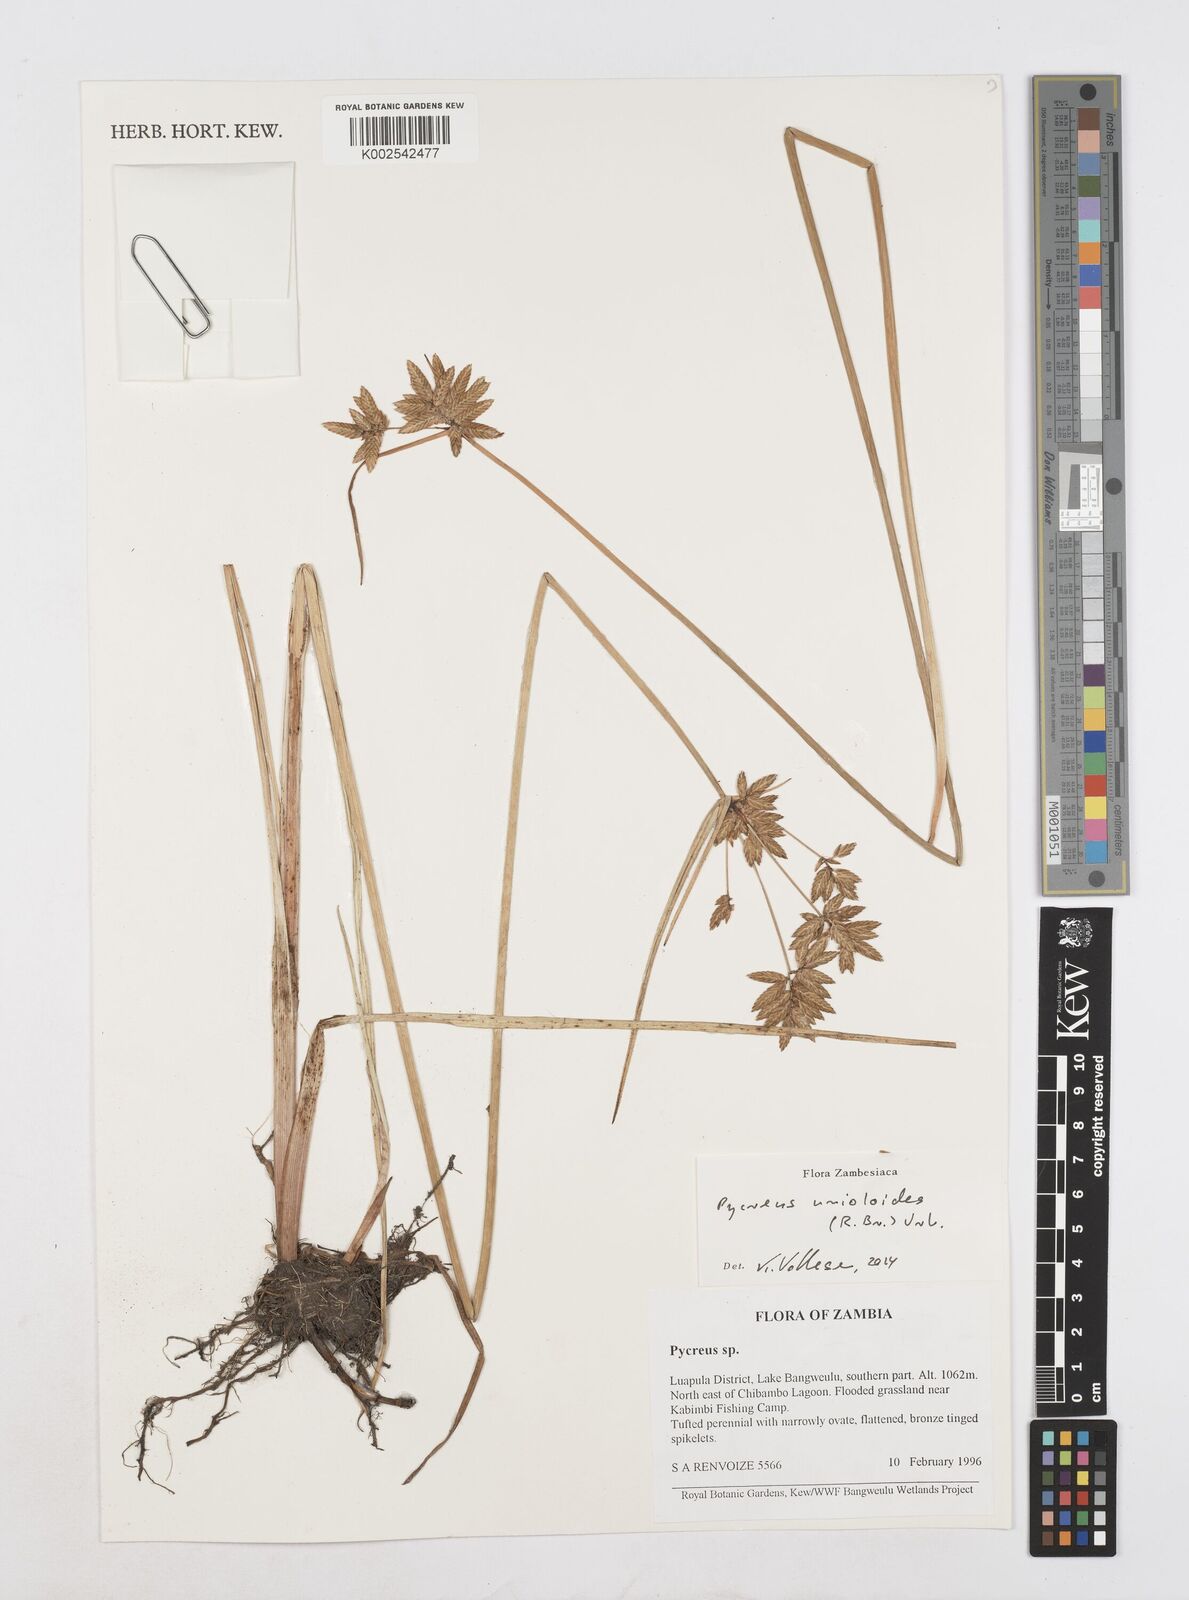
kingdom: Plantae
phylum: Tracheophyta
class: Liliopsida
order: Poales
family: Cyperaceae
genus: Cyperus
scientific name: Cyperus unioloides
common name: Uniola flatsedge
